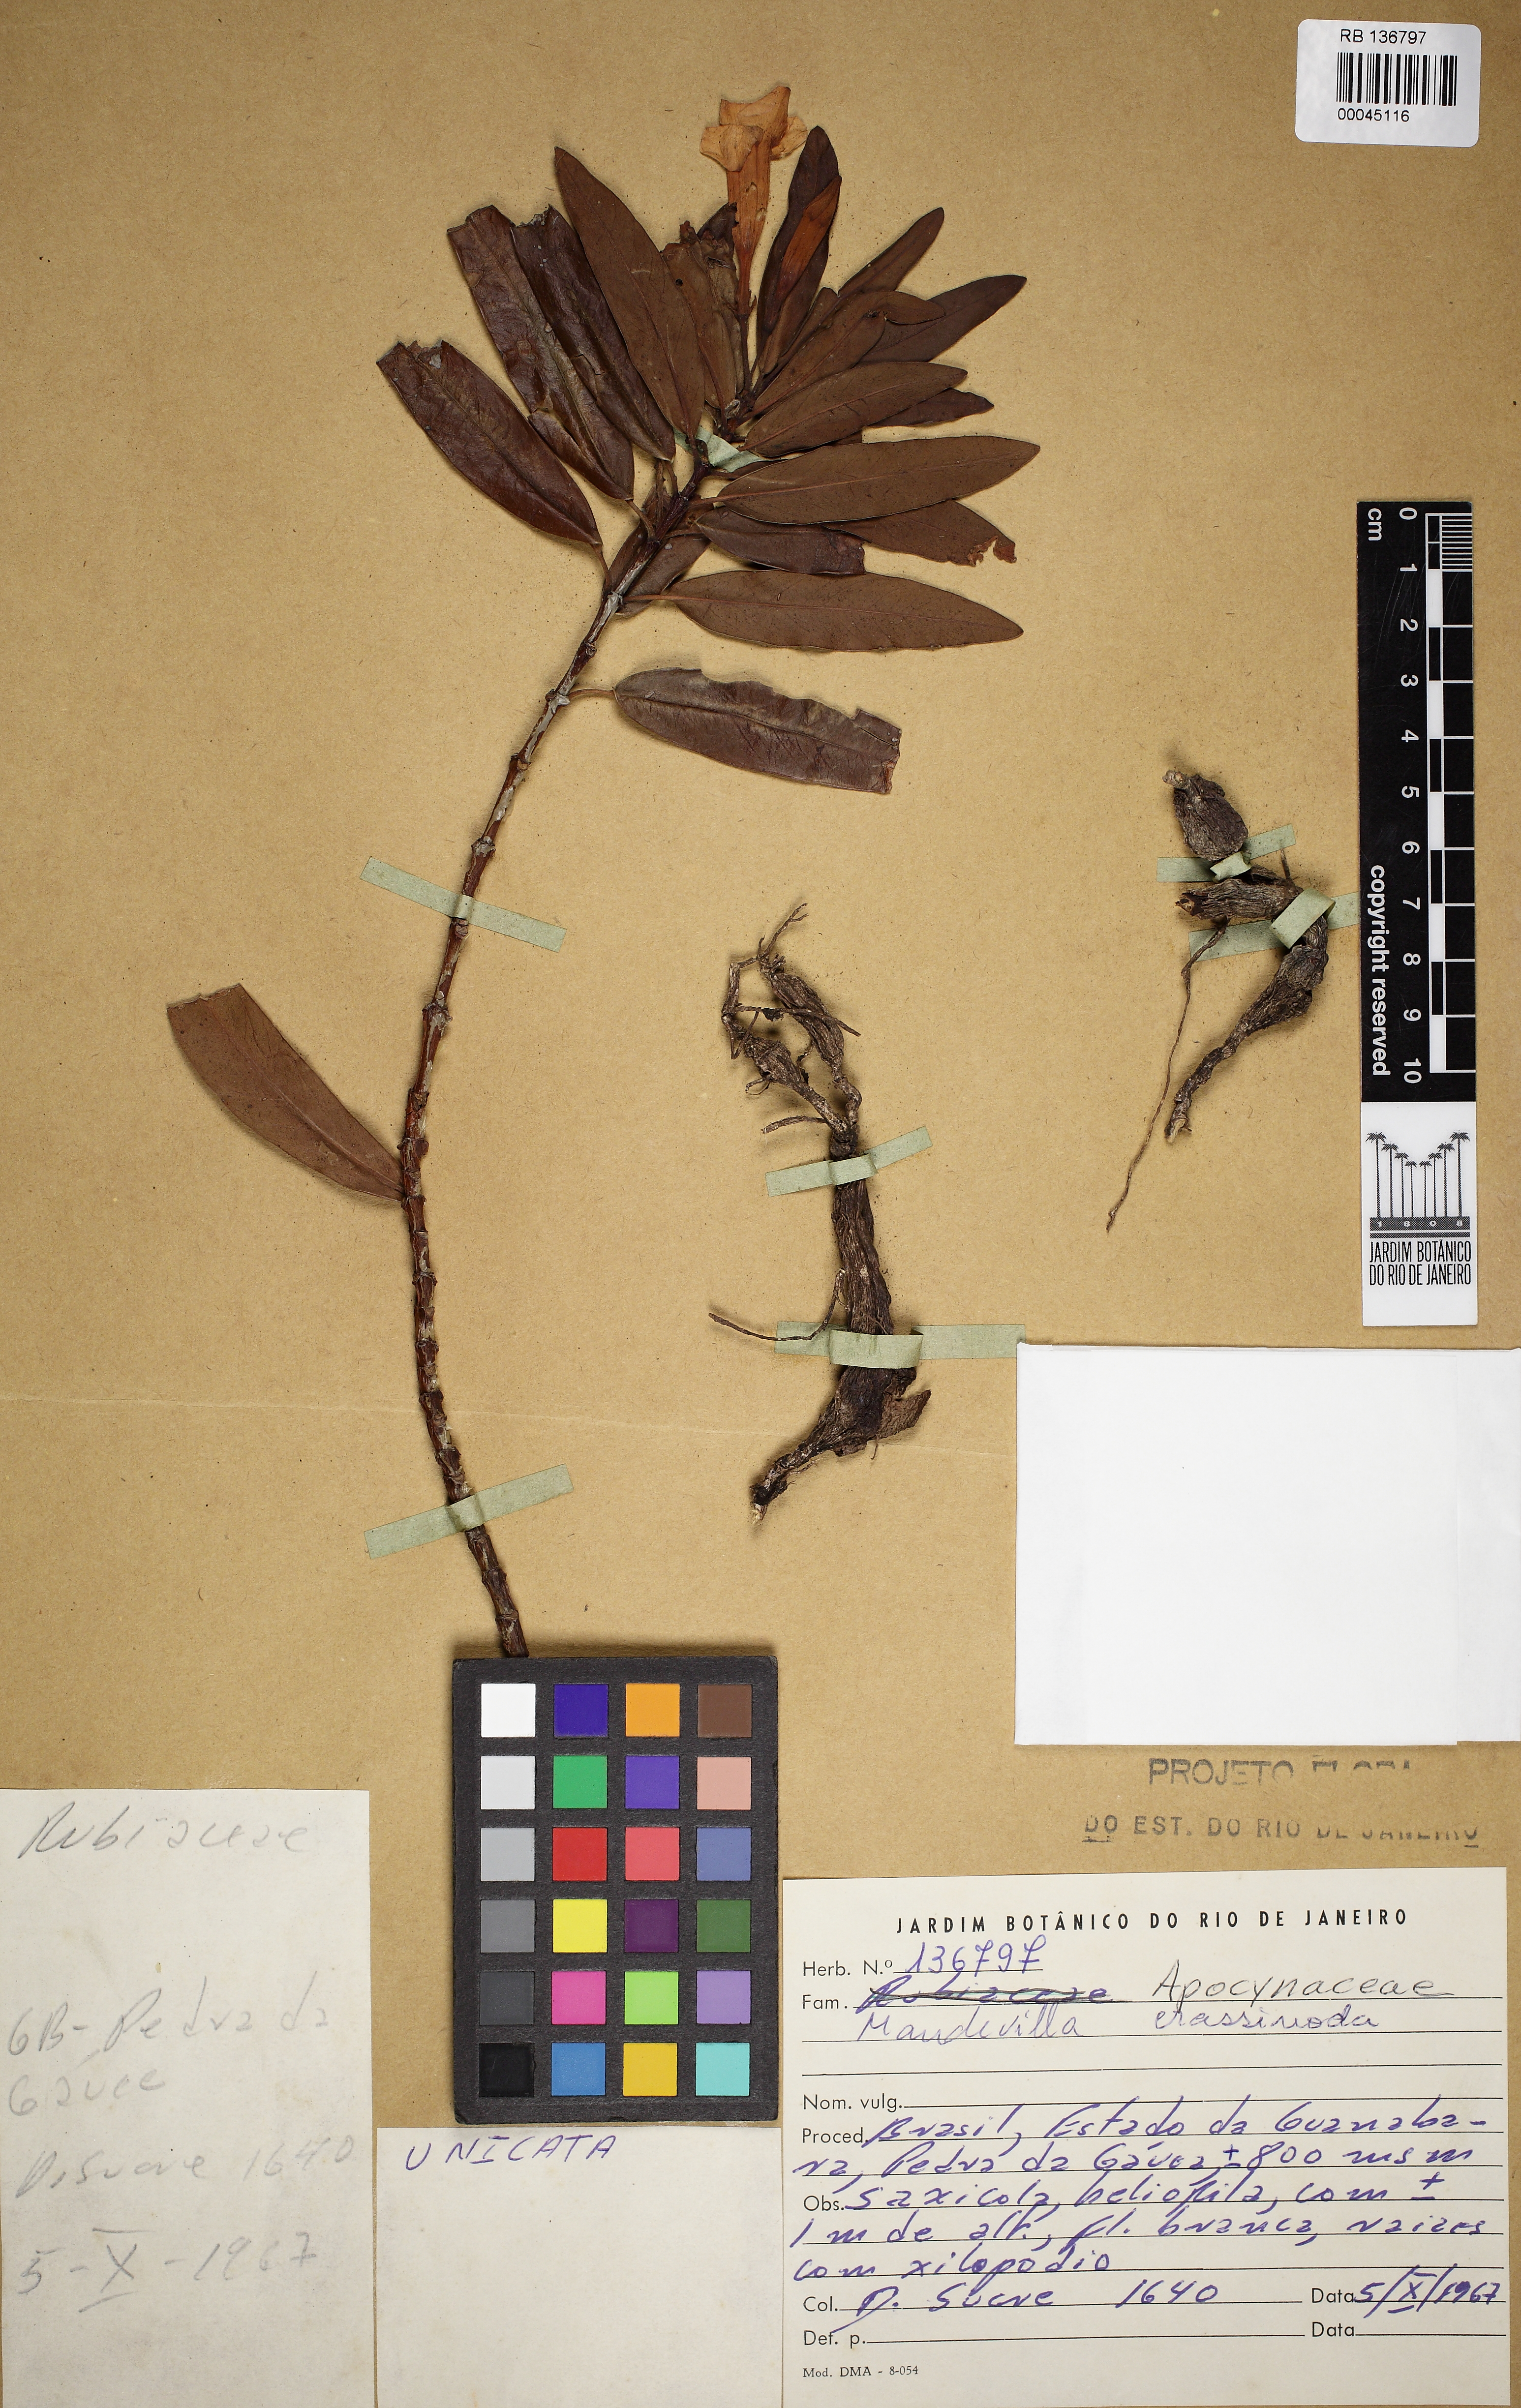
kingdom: Plantae
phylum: Tracheophyta
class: Magnoliopsida
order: Gentianales
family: Apocynaceae
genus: Mandevilla
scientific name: Mandevilla crassinoda
